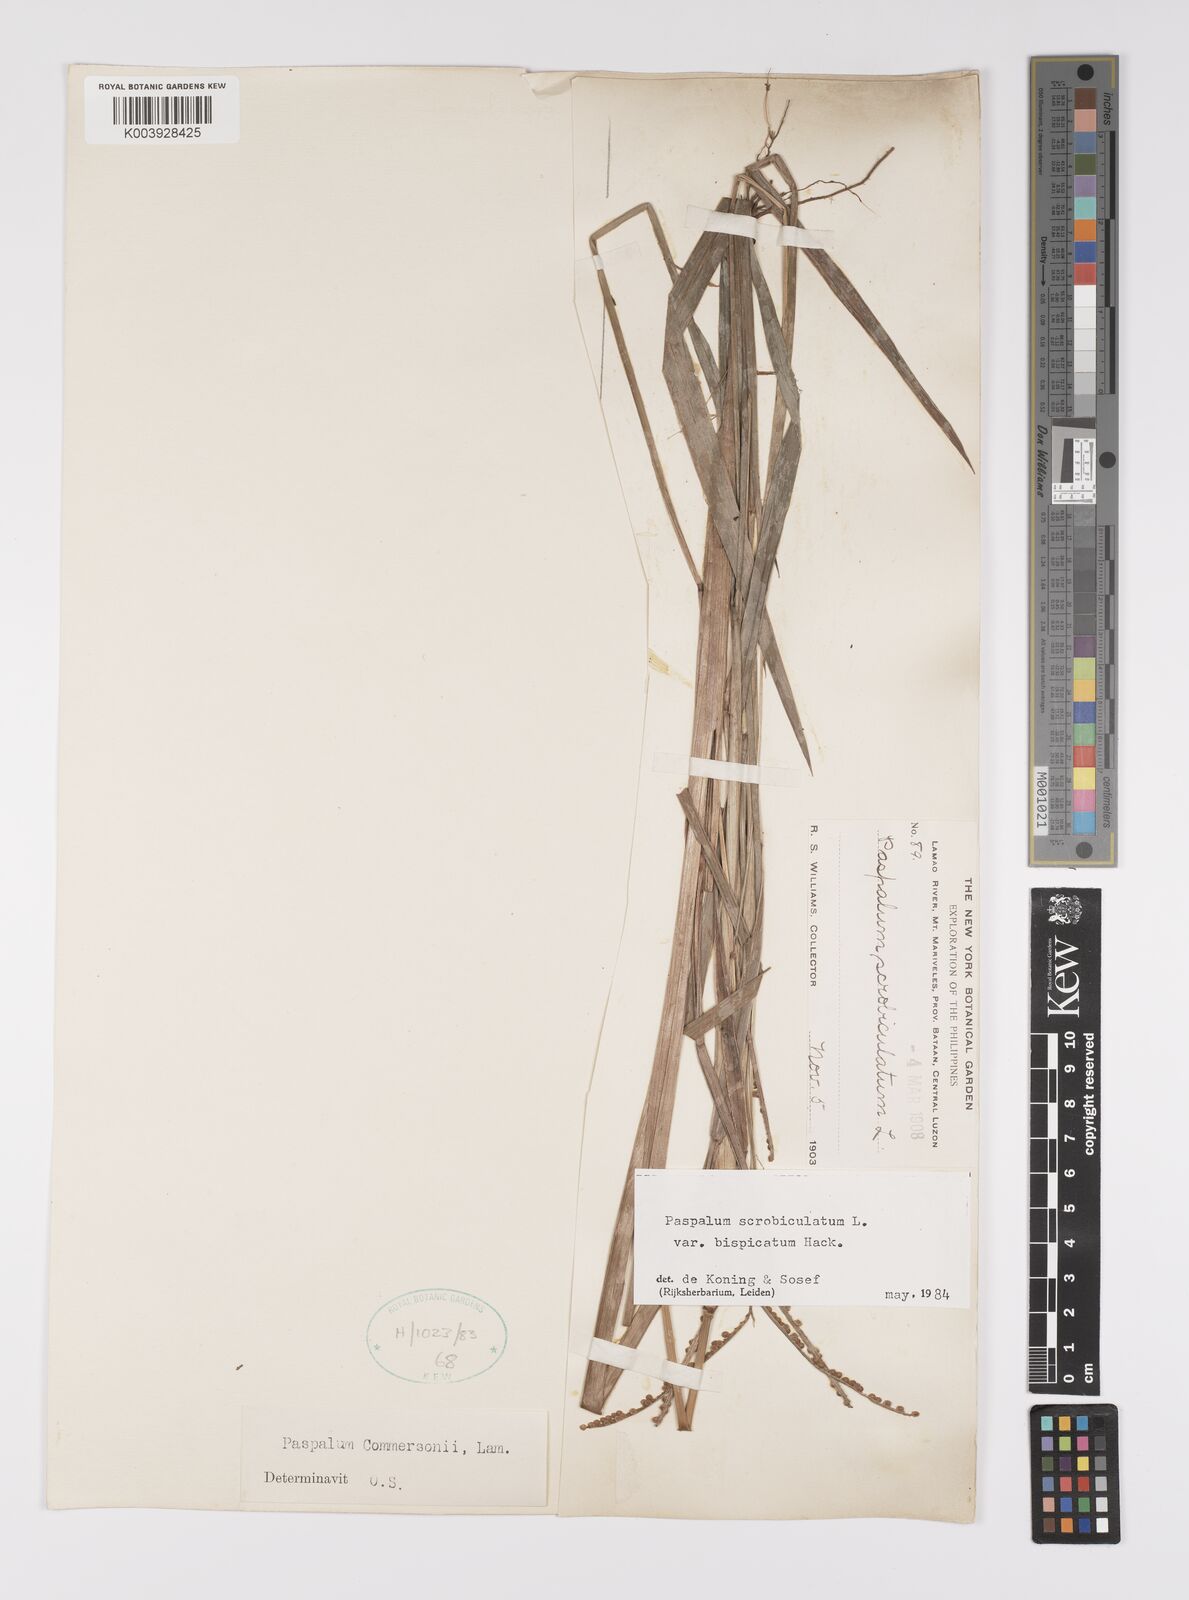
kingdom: Plantae
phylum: Tracheophyta
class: Liliopsida
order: Poales
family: Poaceae
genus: Paspalum
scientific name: Paspalum scrobiculatum
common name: Kodo millet
